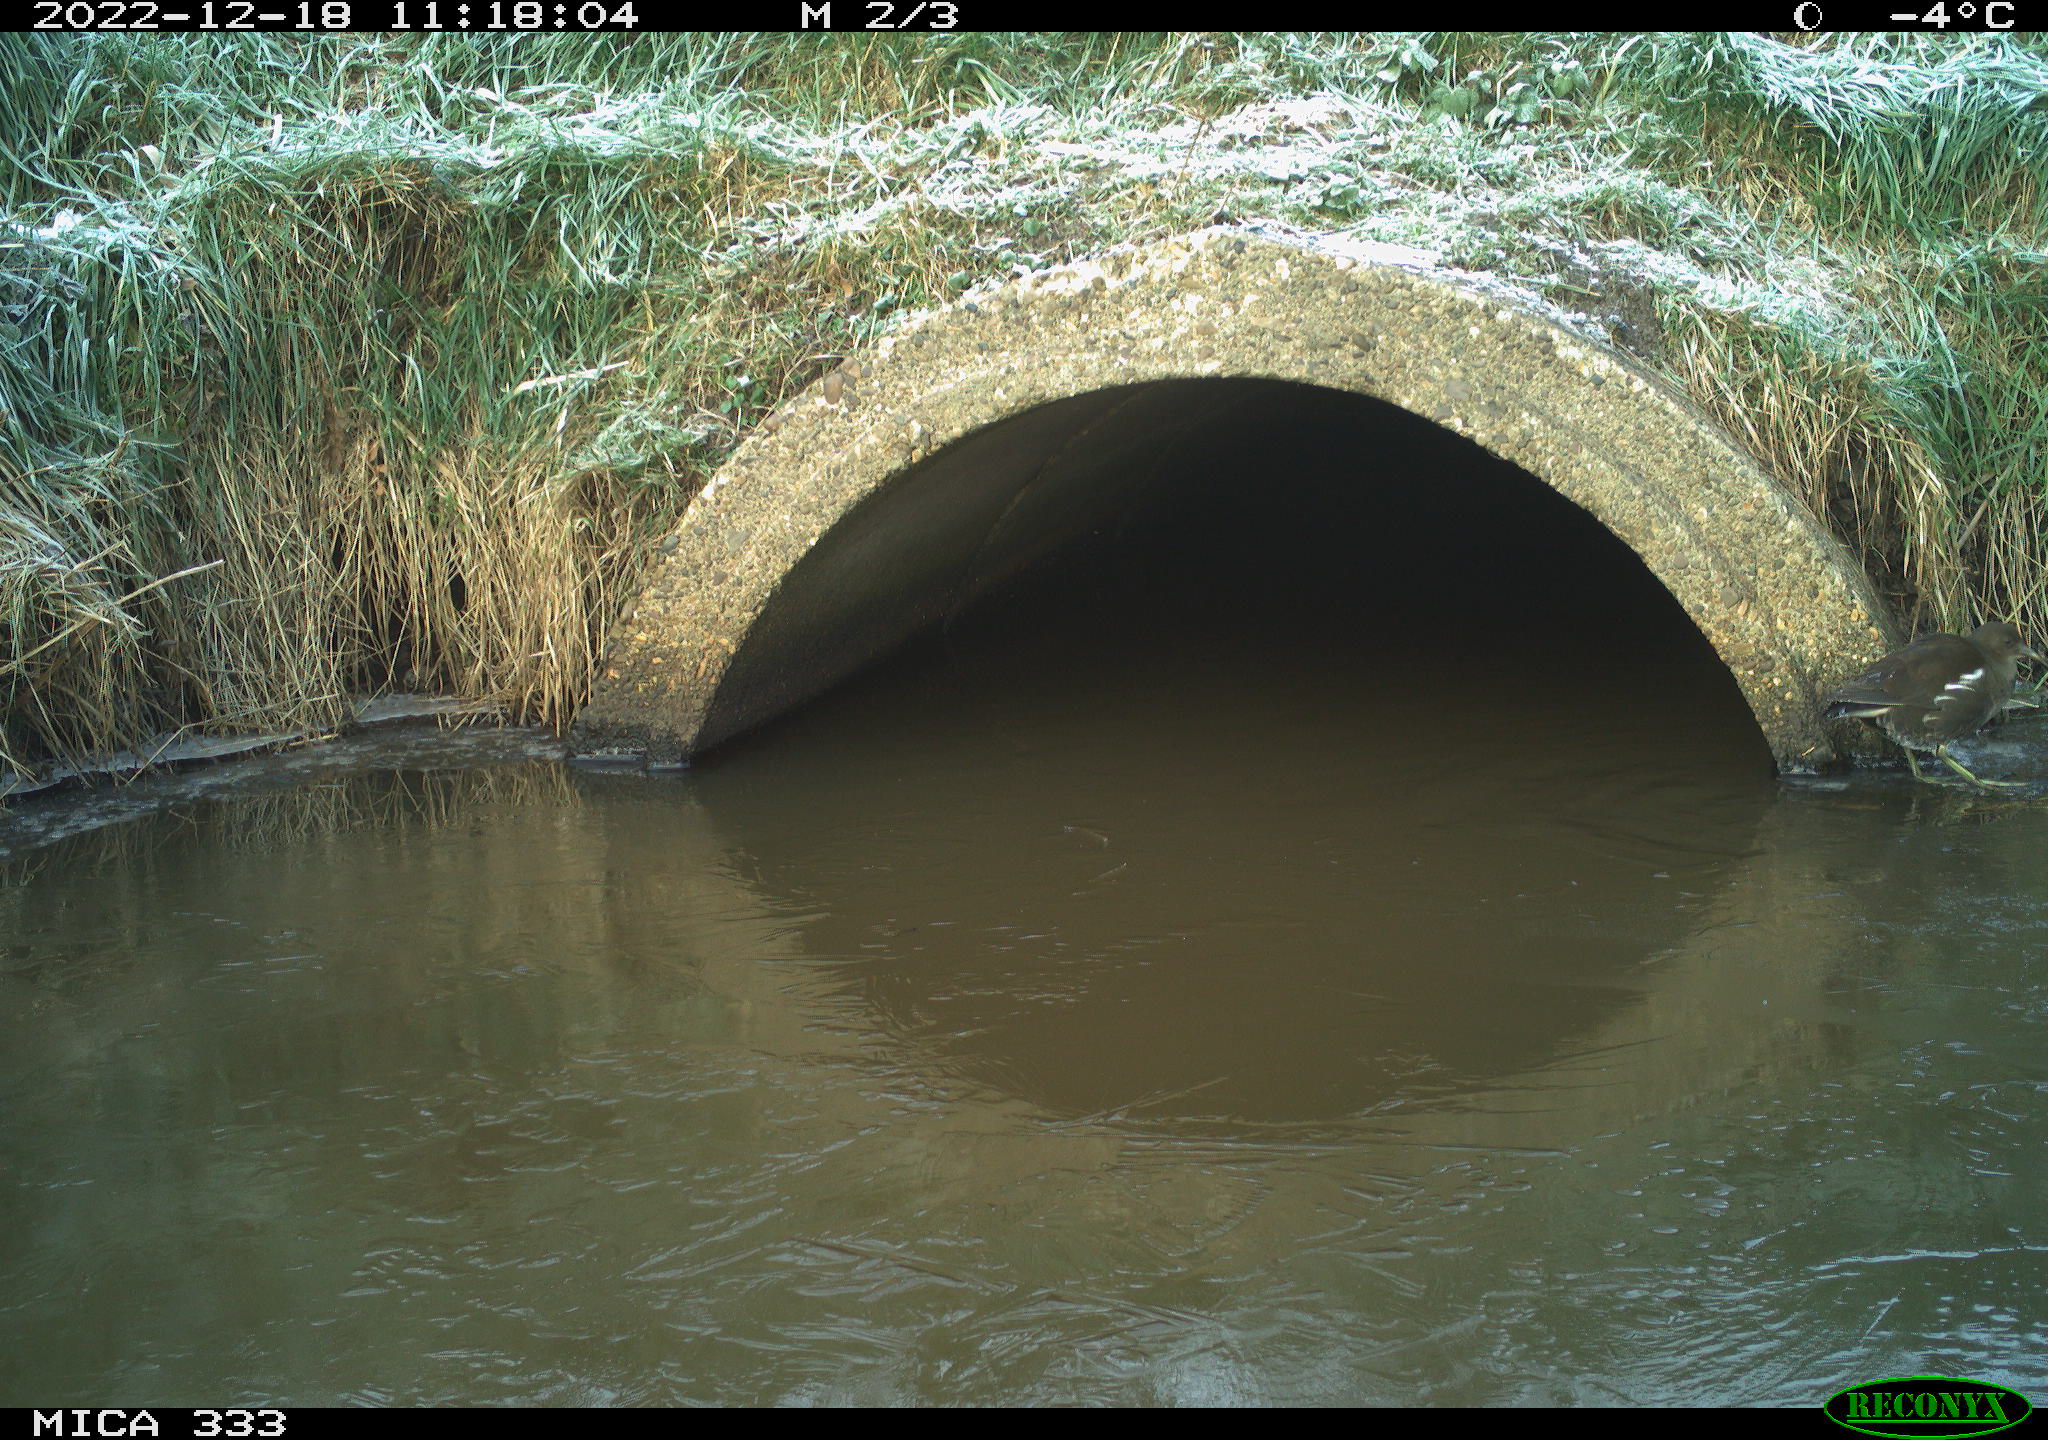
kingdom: Animalia
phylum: Chordata
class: Aves
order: Gruiformes
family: Rallidae
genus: Gallinula
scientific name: Gallinula chloropus
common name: Common moorhen
